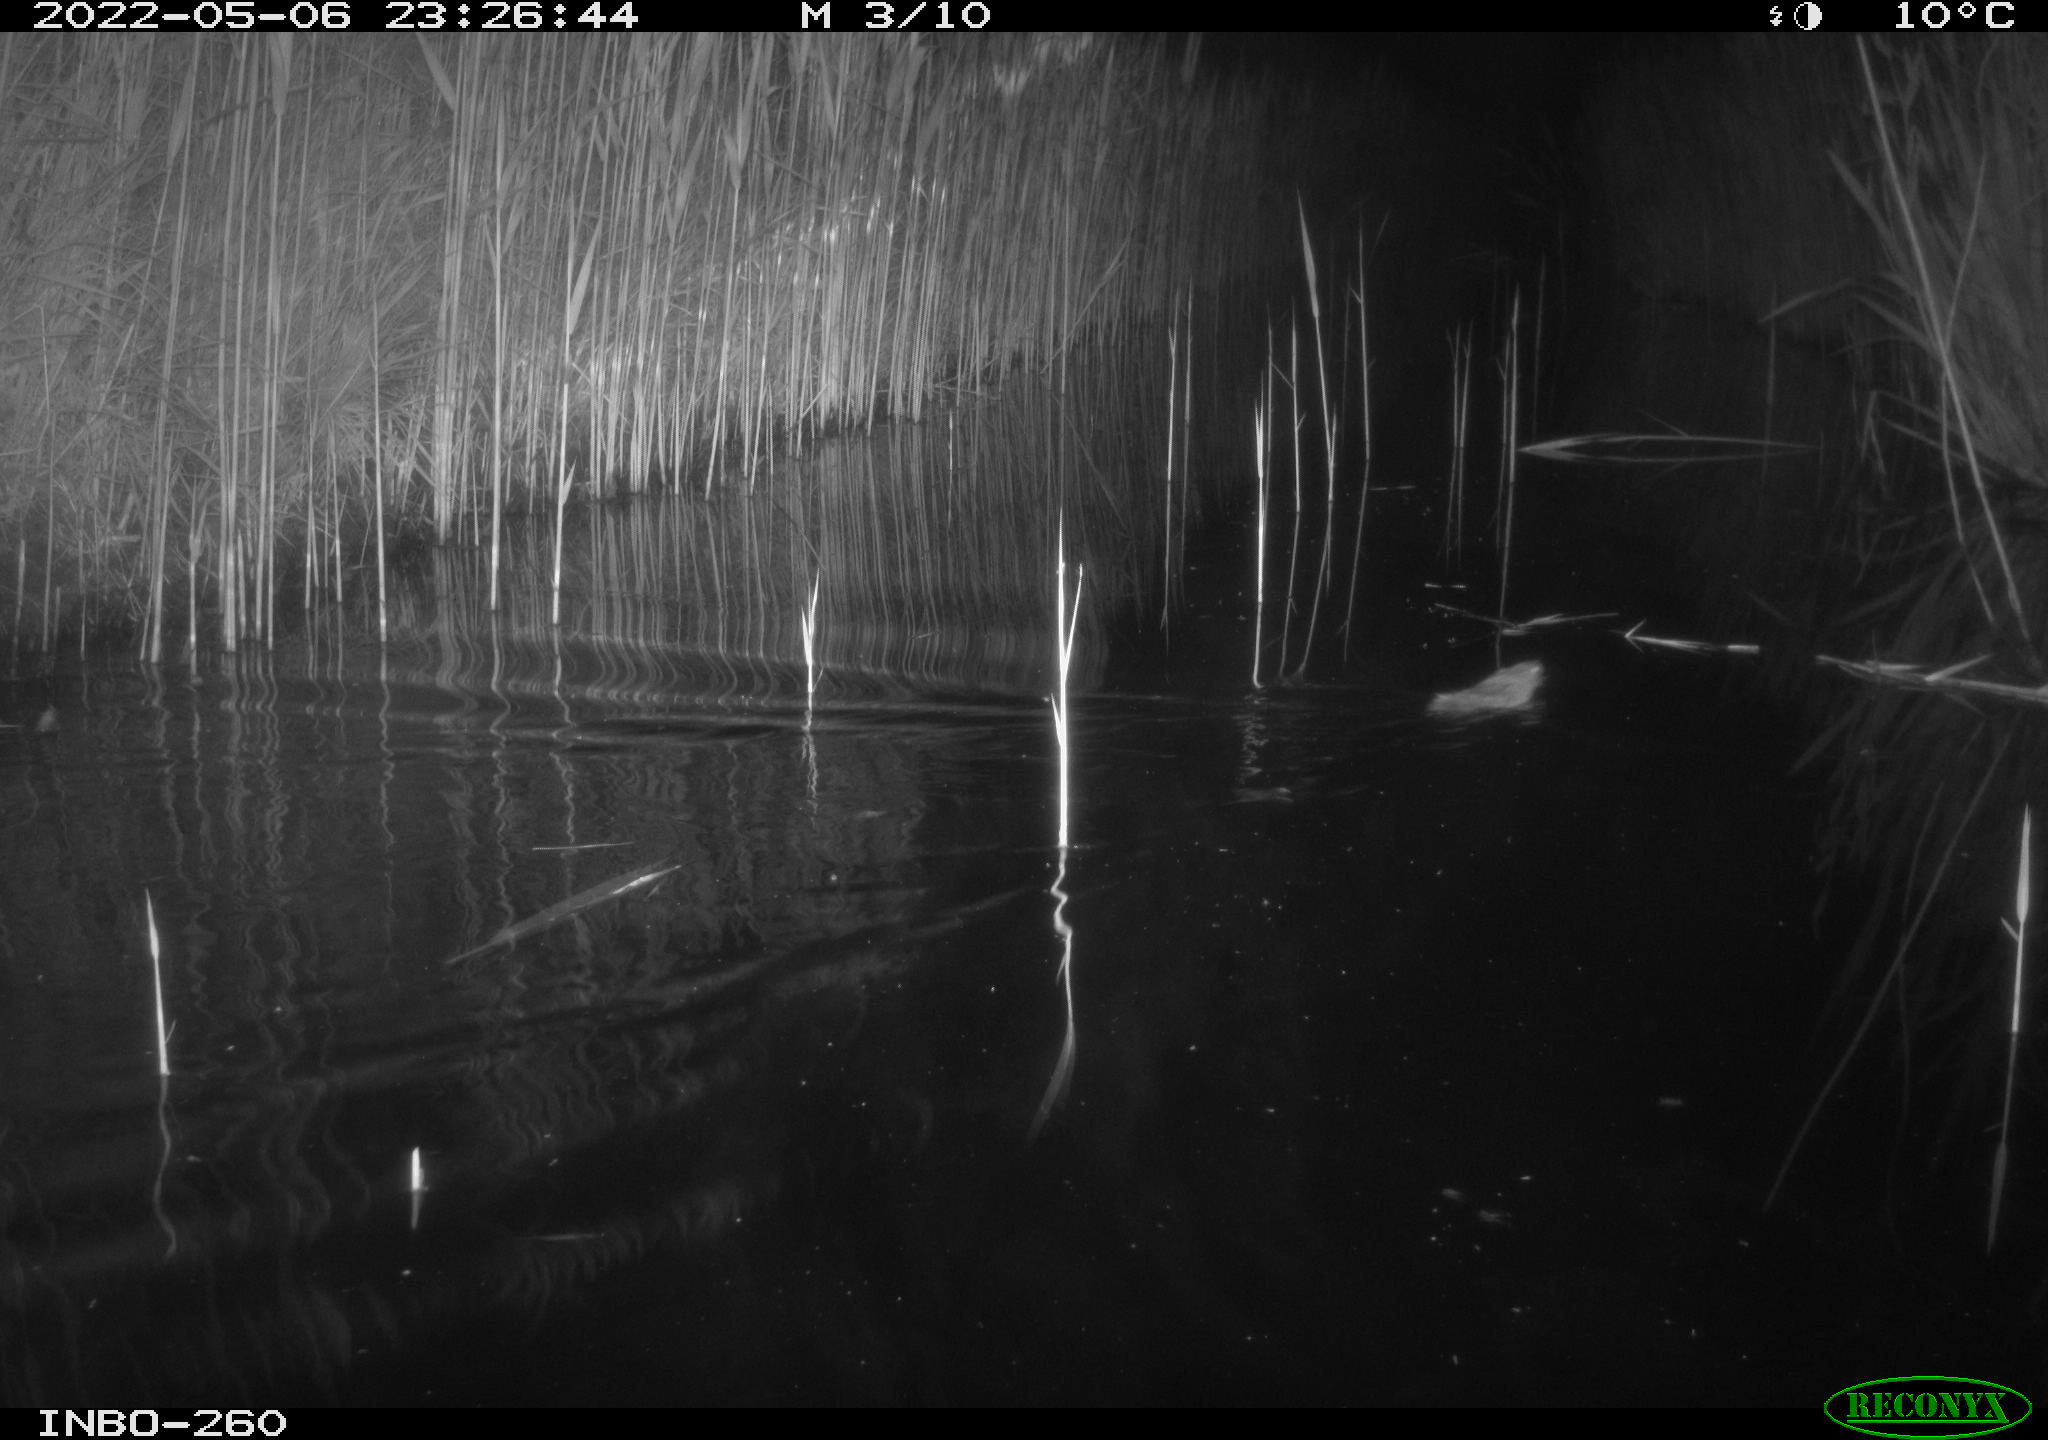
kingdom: Animalia
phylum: Chordata
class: Mammalia
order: Rodentia
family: Muridae
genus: Rattus
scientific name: Rattus norvegicus
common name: Brown rat
